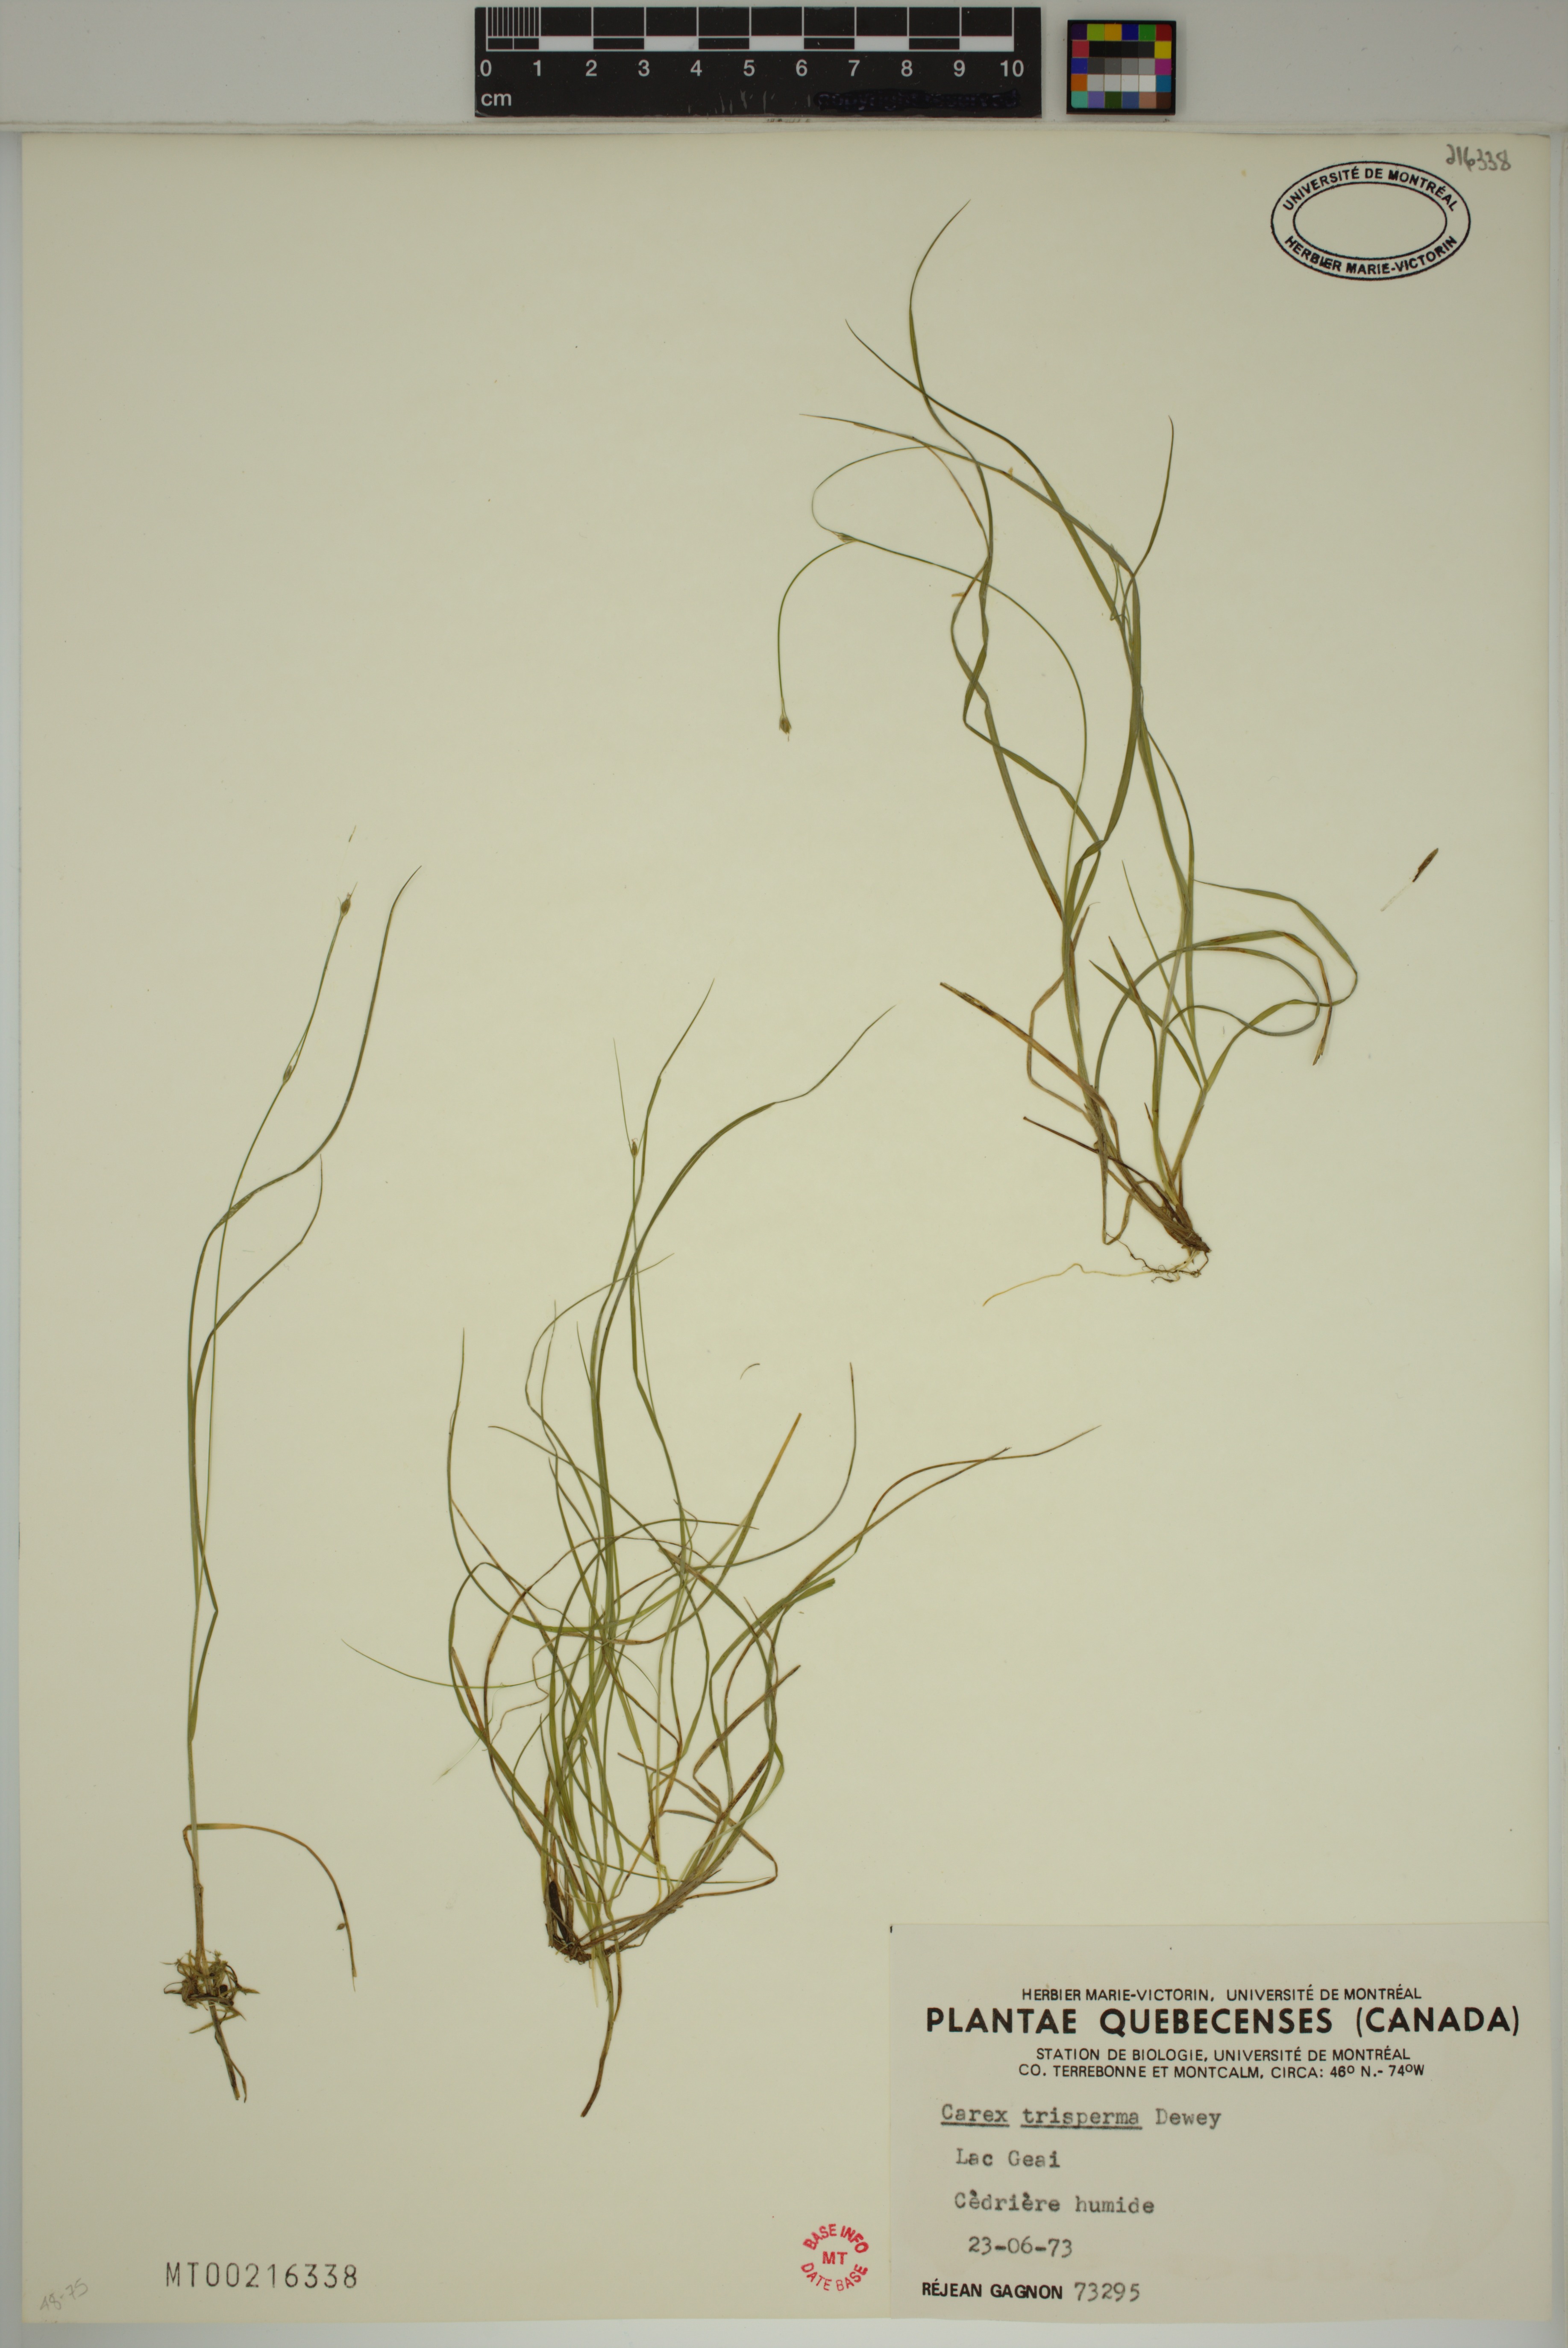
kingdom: Plantae
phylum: Tracheophyta
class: Liliopsida
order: Poales
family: Cyperaceae
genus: Carex
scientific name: Carex trisperma
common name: Three-seeded sedge
